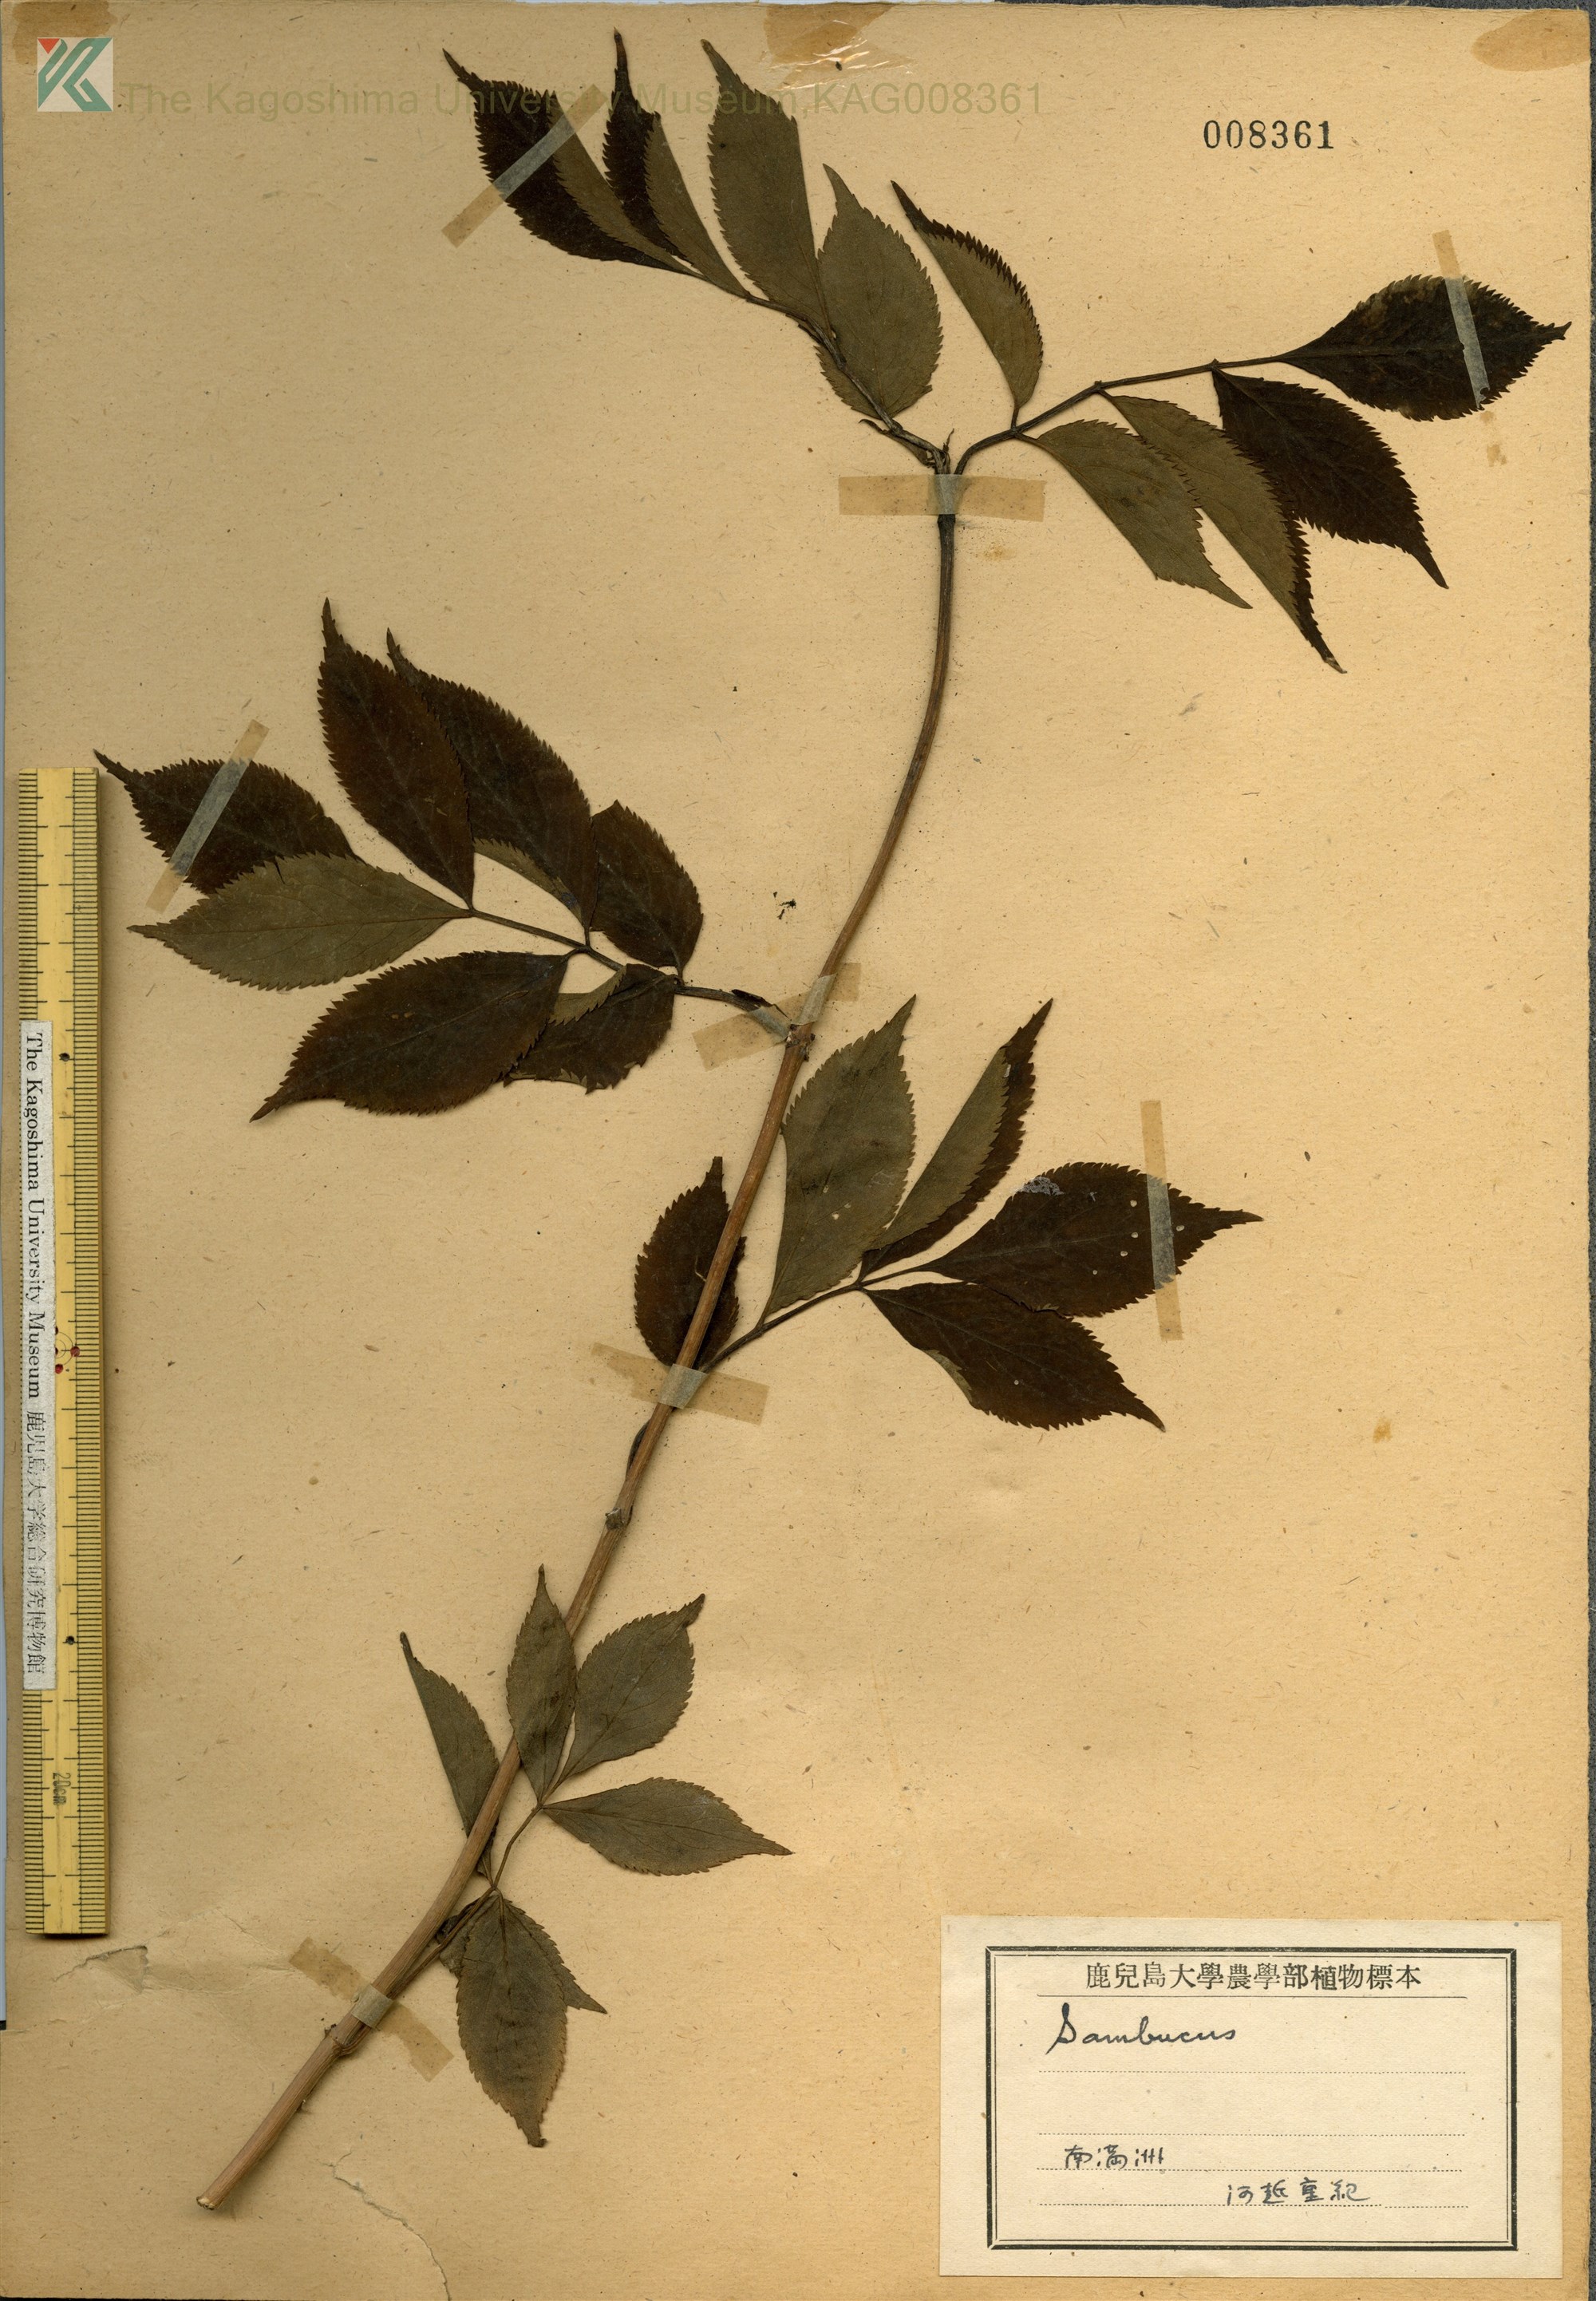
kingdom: Plantae
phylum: Tracheophyta
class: Magnoliopsida
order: Dipsacales
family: Viburnaceae
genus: Sambucus
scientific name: Sambucus kamtschatica
